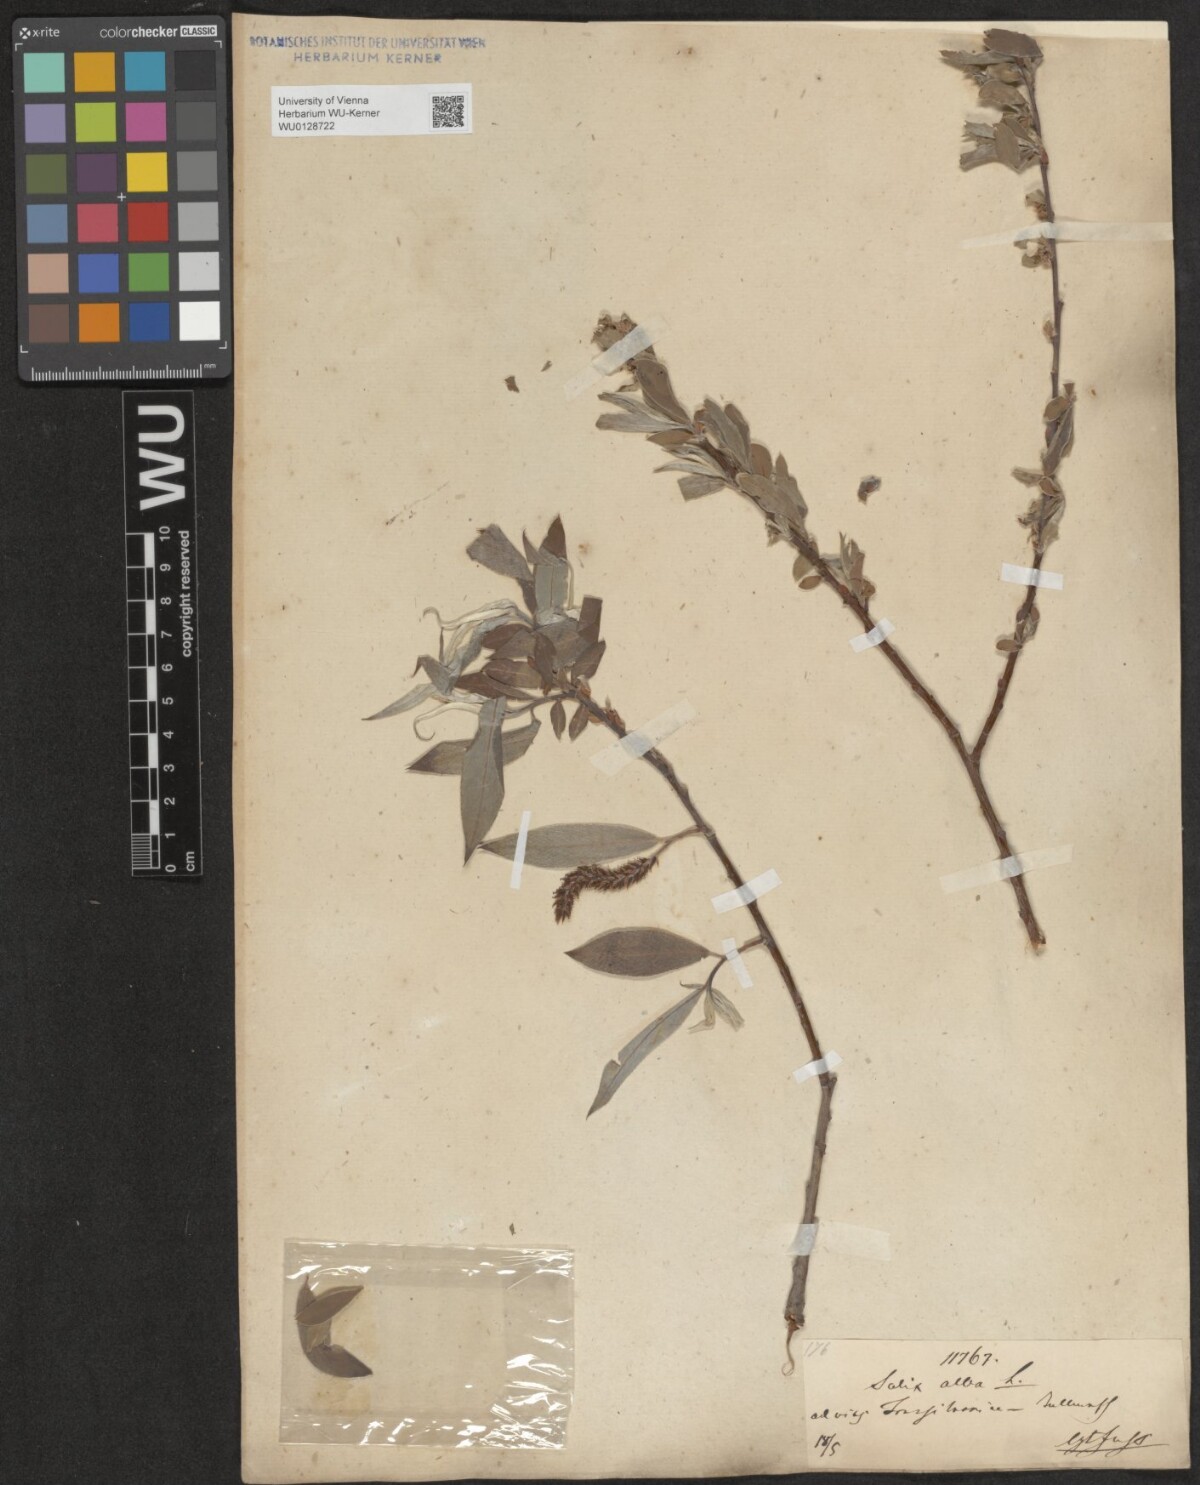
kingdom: Plantae
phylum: Tracheophyta
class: Magnoliopsida
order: Malpighiales
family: Salicaceae
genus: Salix
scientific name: Salix alba
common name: White willow
